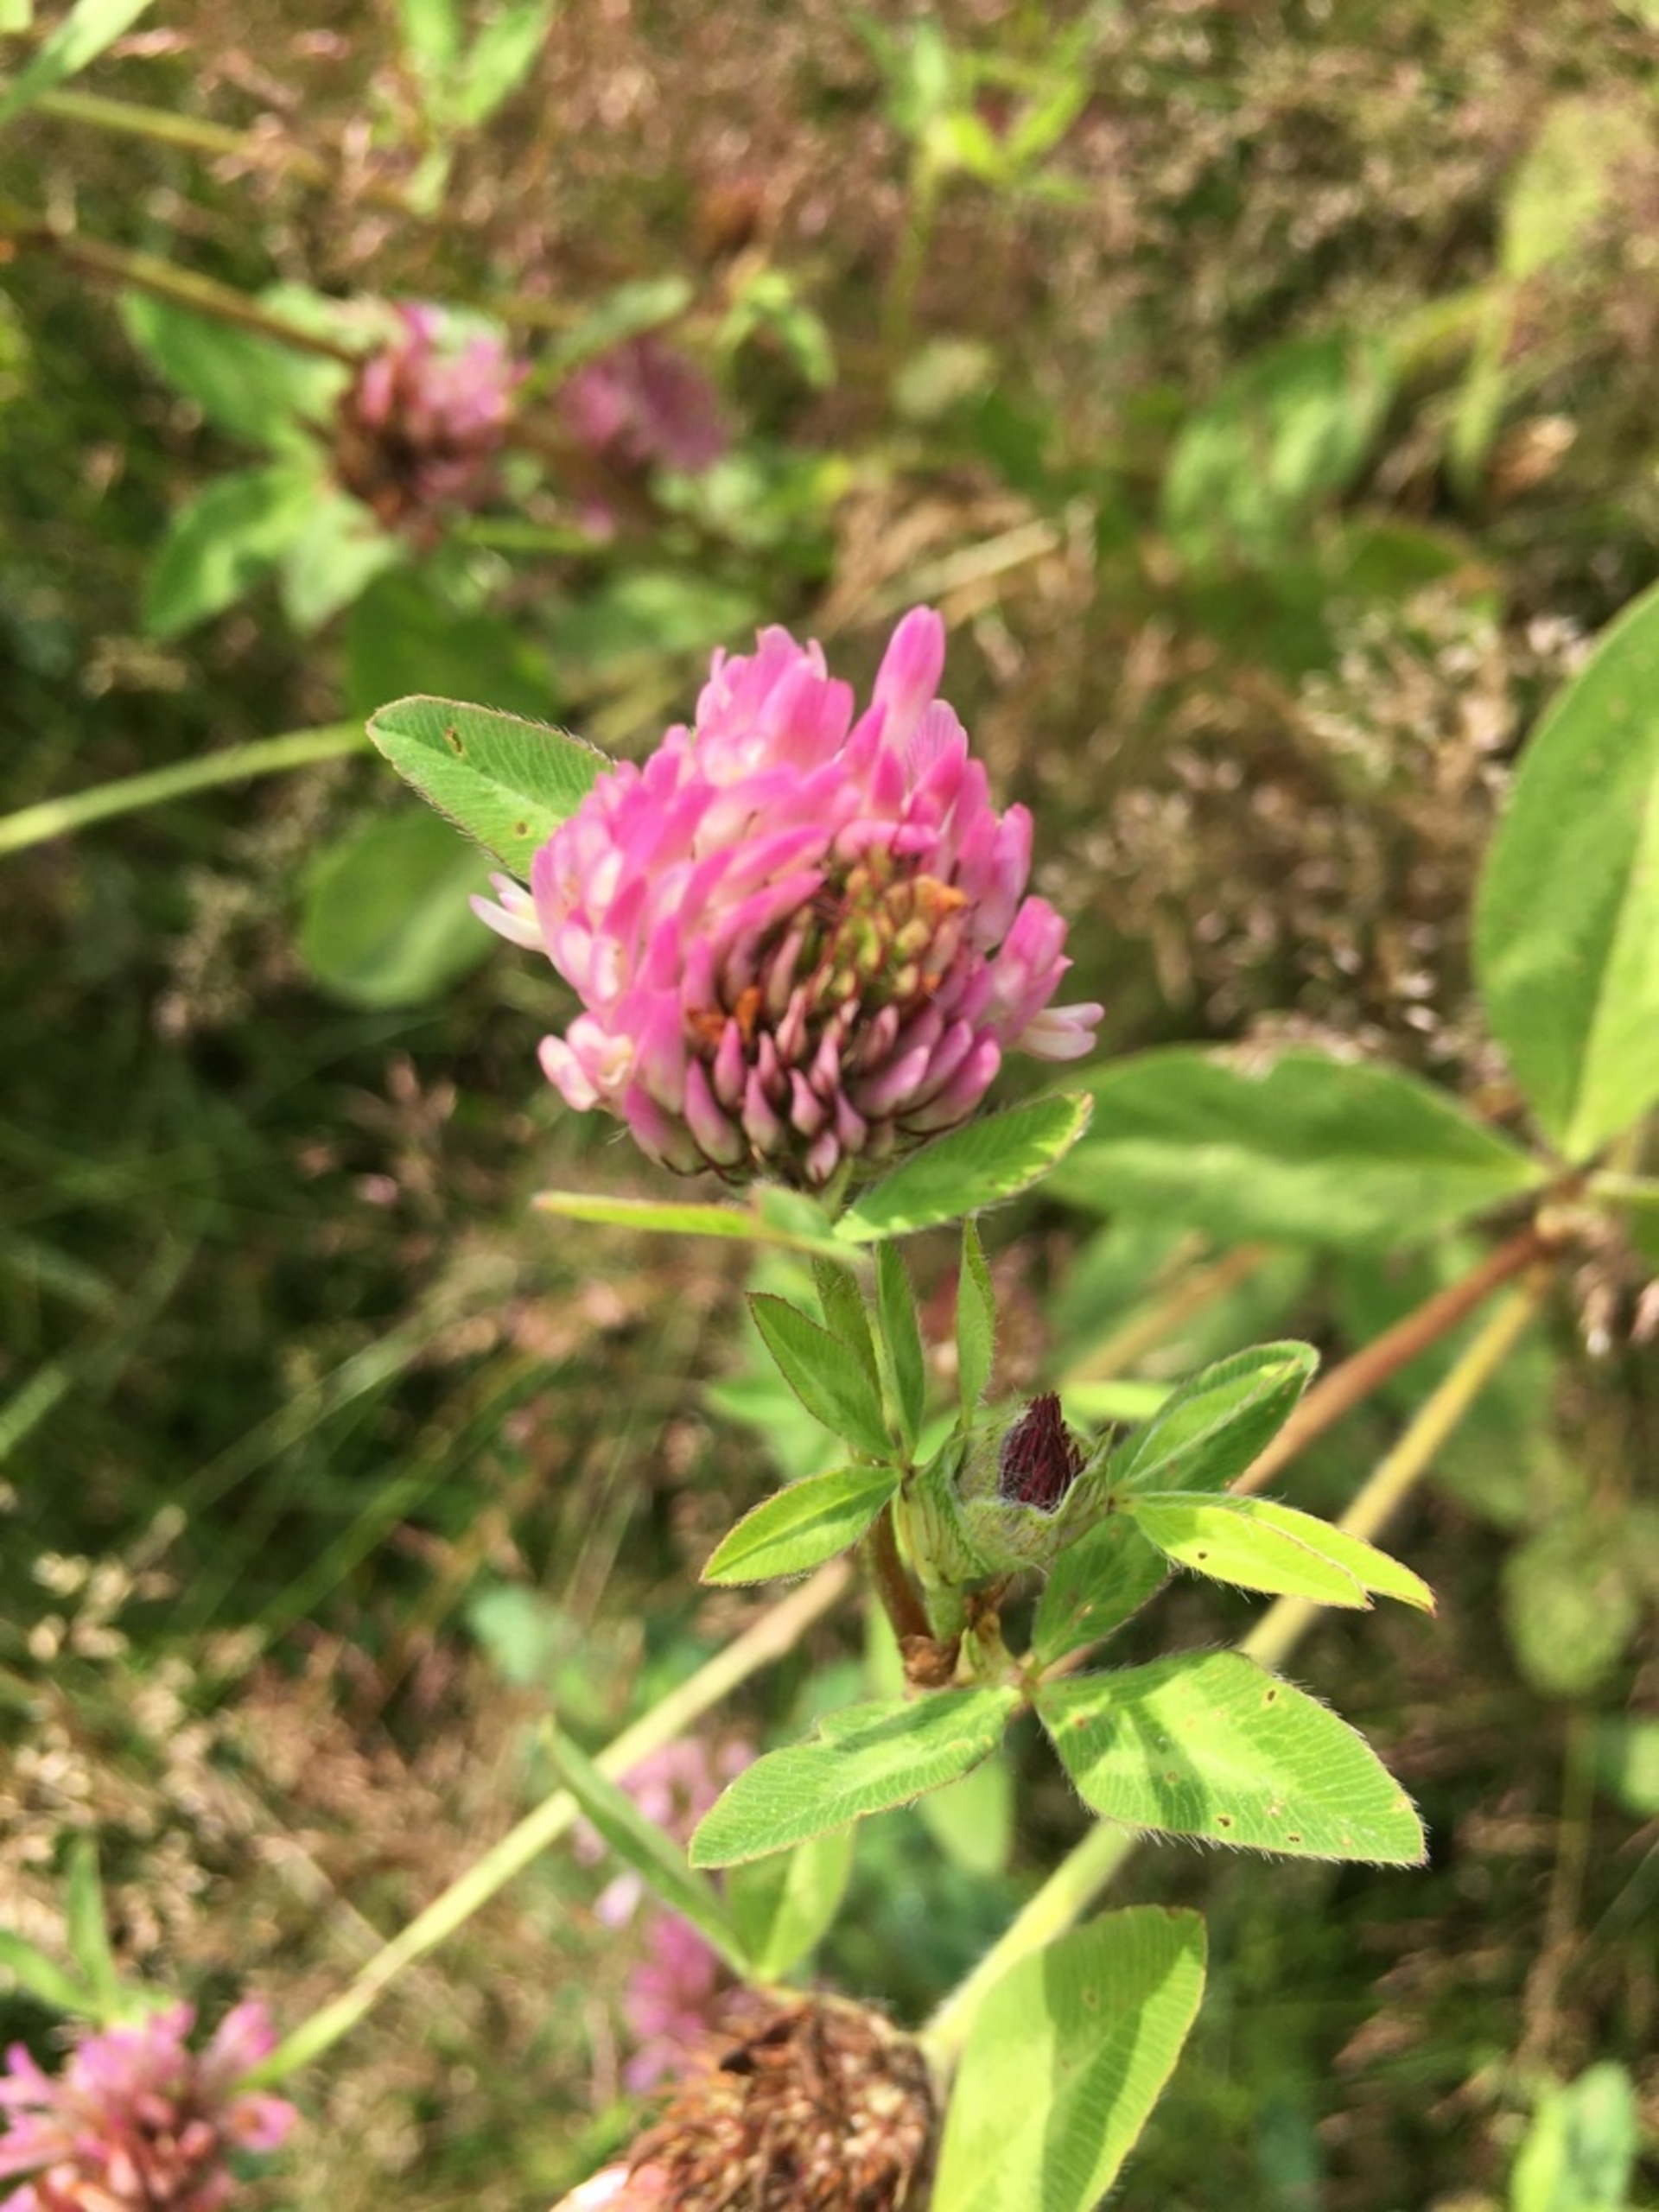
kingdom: Plantae
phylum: Tracheophyta
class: Magnoliopsida
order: Fabales
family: Fabaceae
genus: Trifolium
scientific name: Trifolium pratense
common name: Rød-kløver
